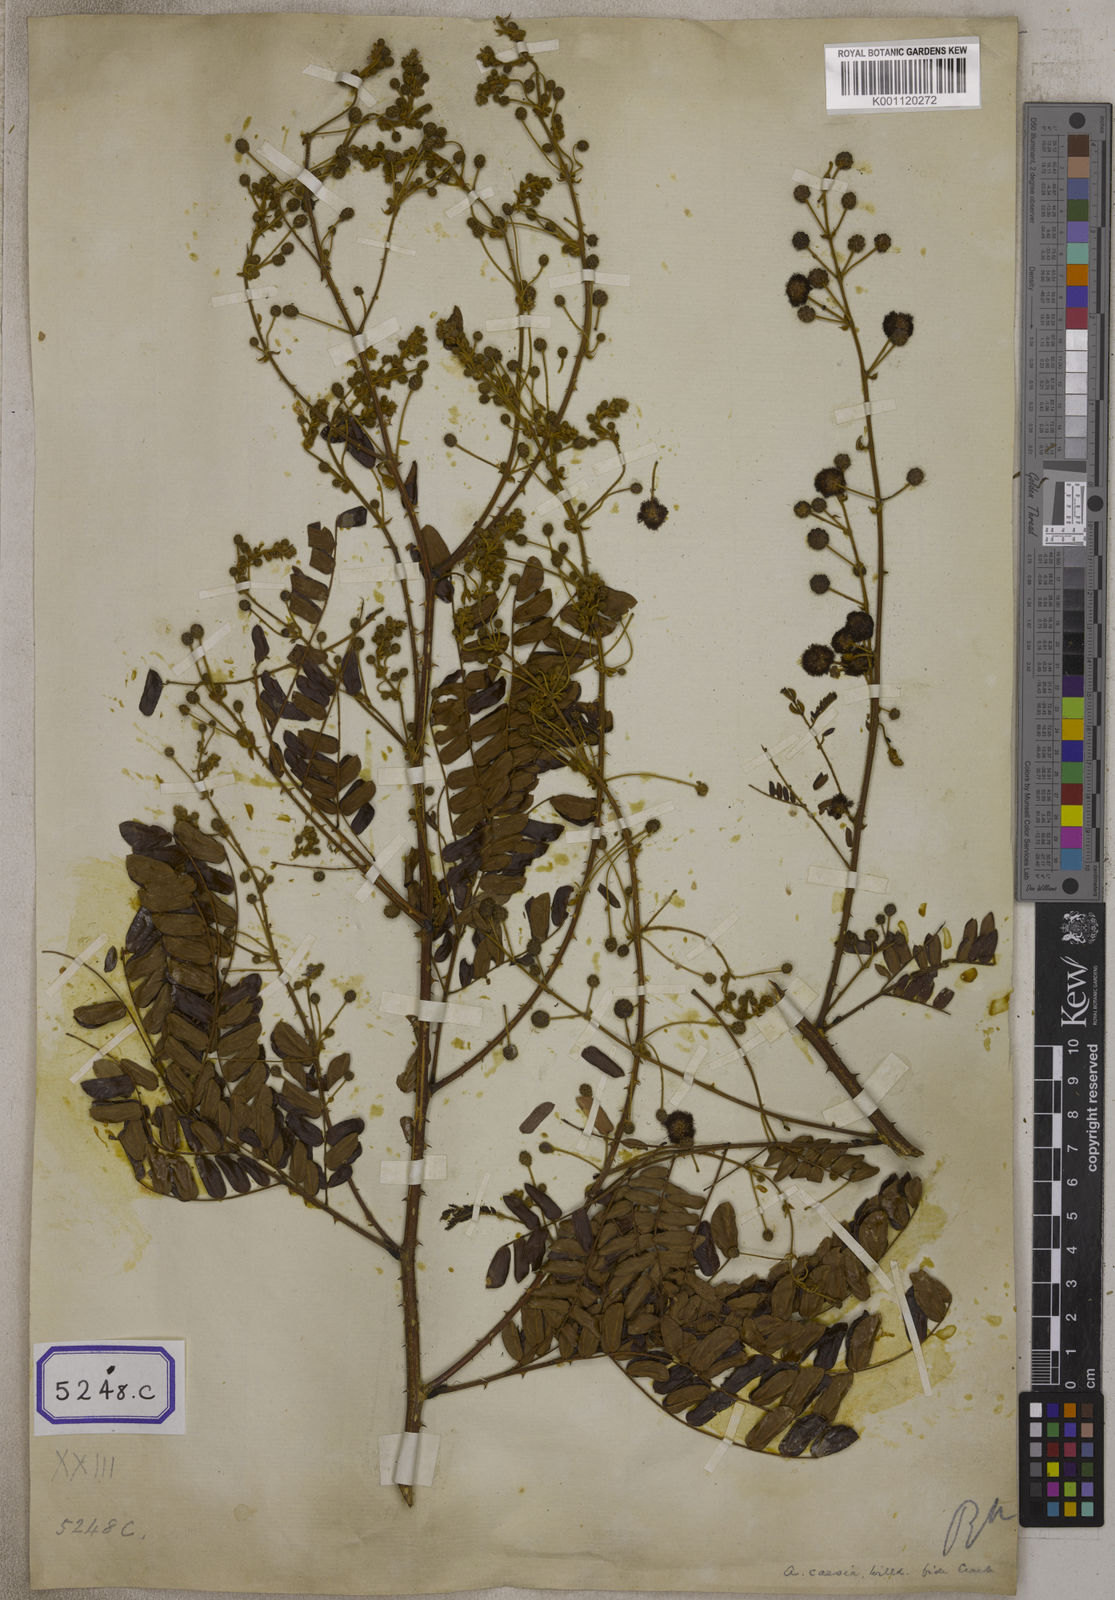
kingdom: Plantae
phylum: Tracheophyta
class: Magnoliopsida
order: Fabales
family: Fabaceae
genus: Senegalia
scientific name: Senegalia intsia
